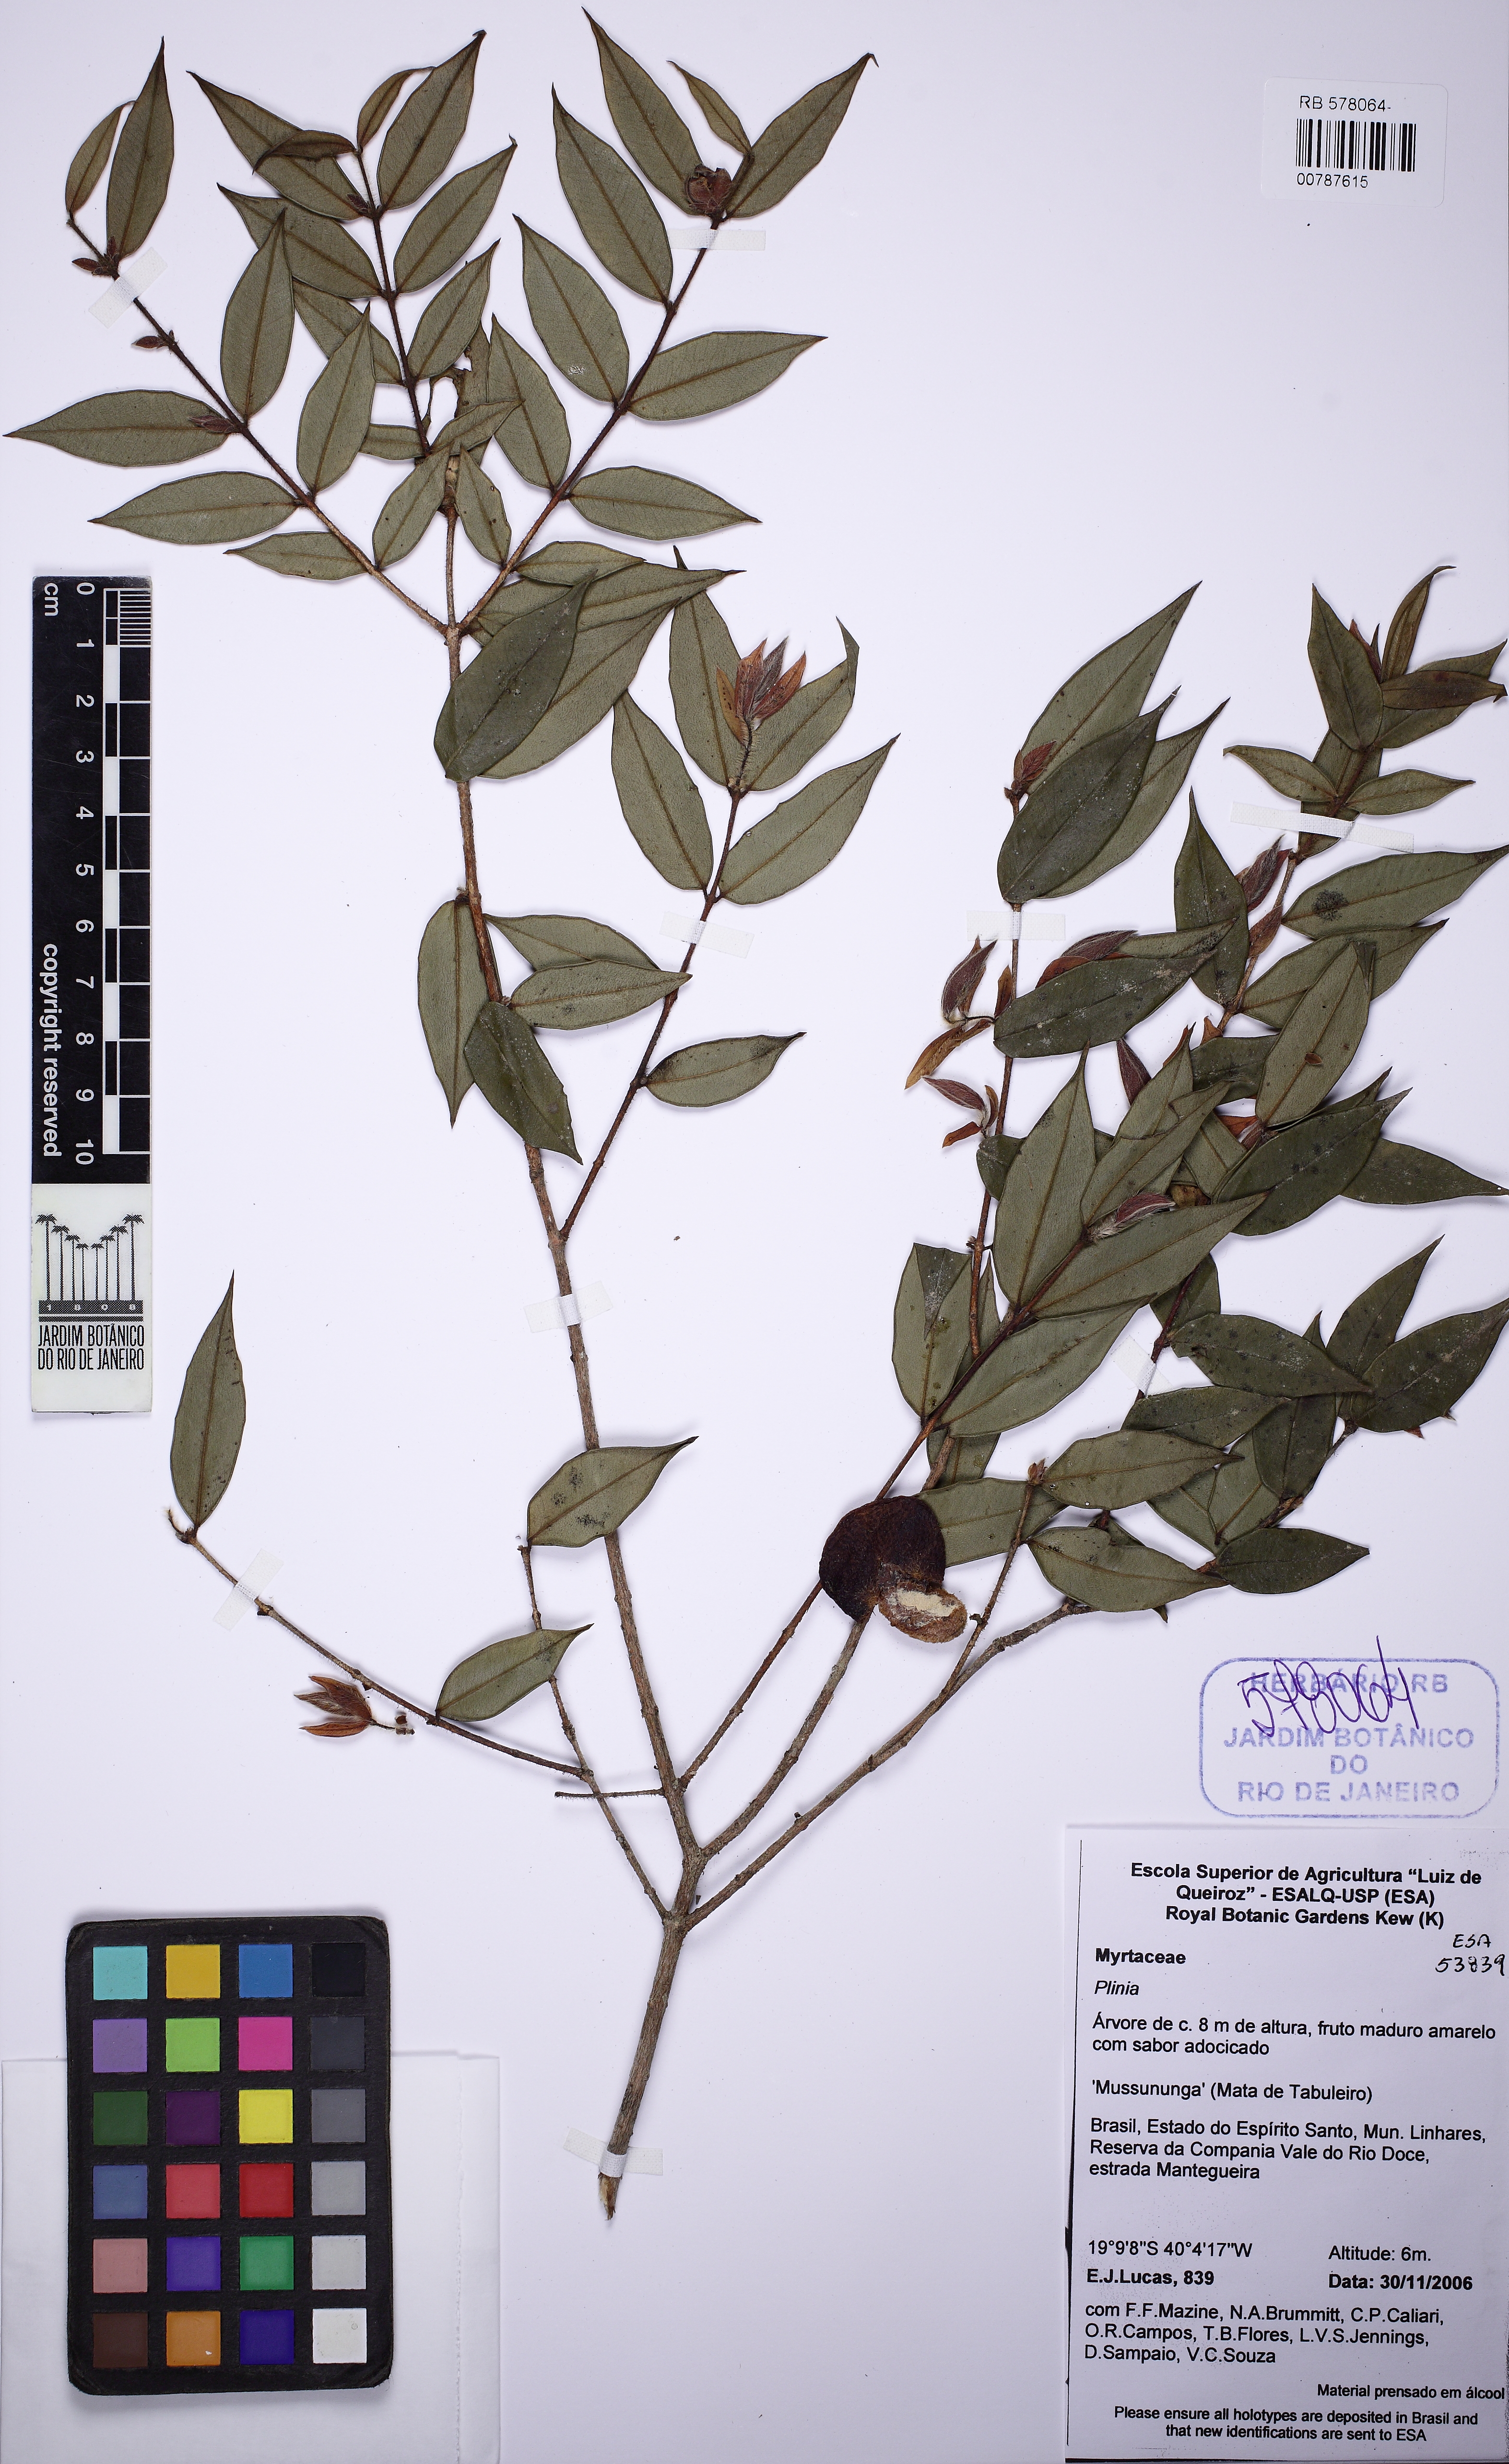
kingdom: Plantae
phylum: Tracheophyta
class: Magnoliopsida
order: Myrtales
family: Myrtaceae
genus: Myrciaria
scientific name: Myrciaria strigipes
